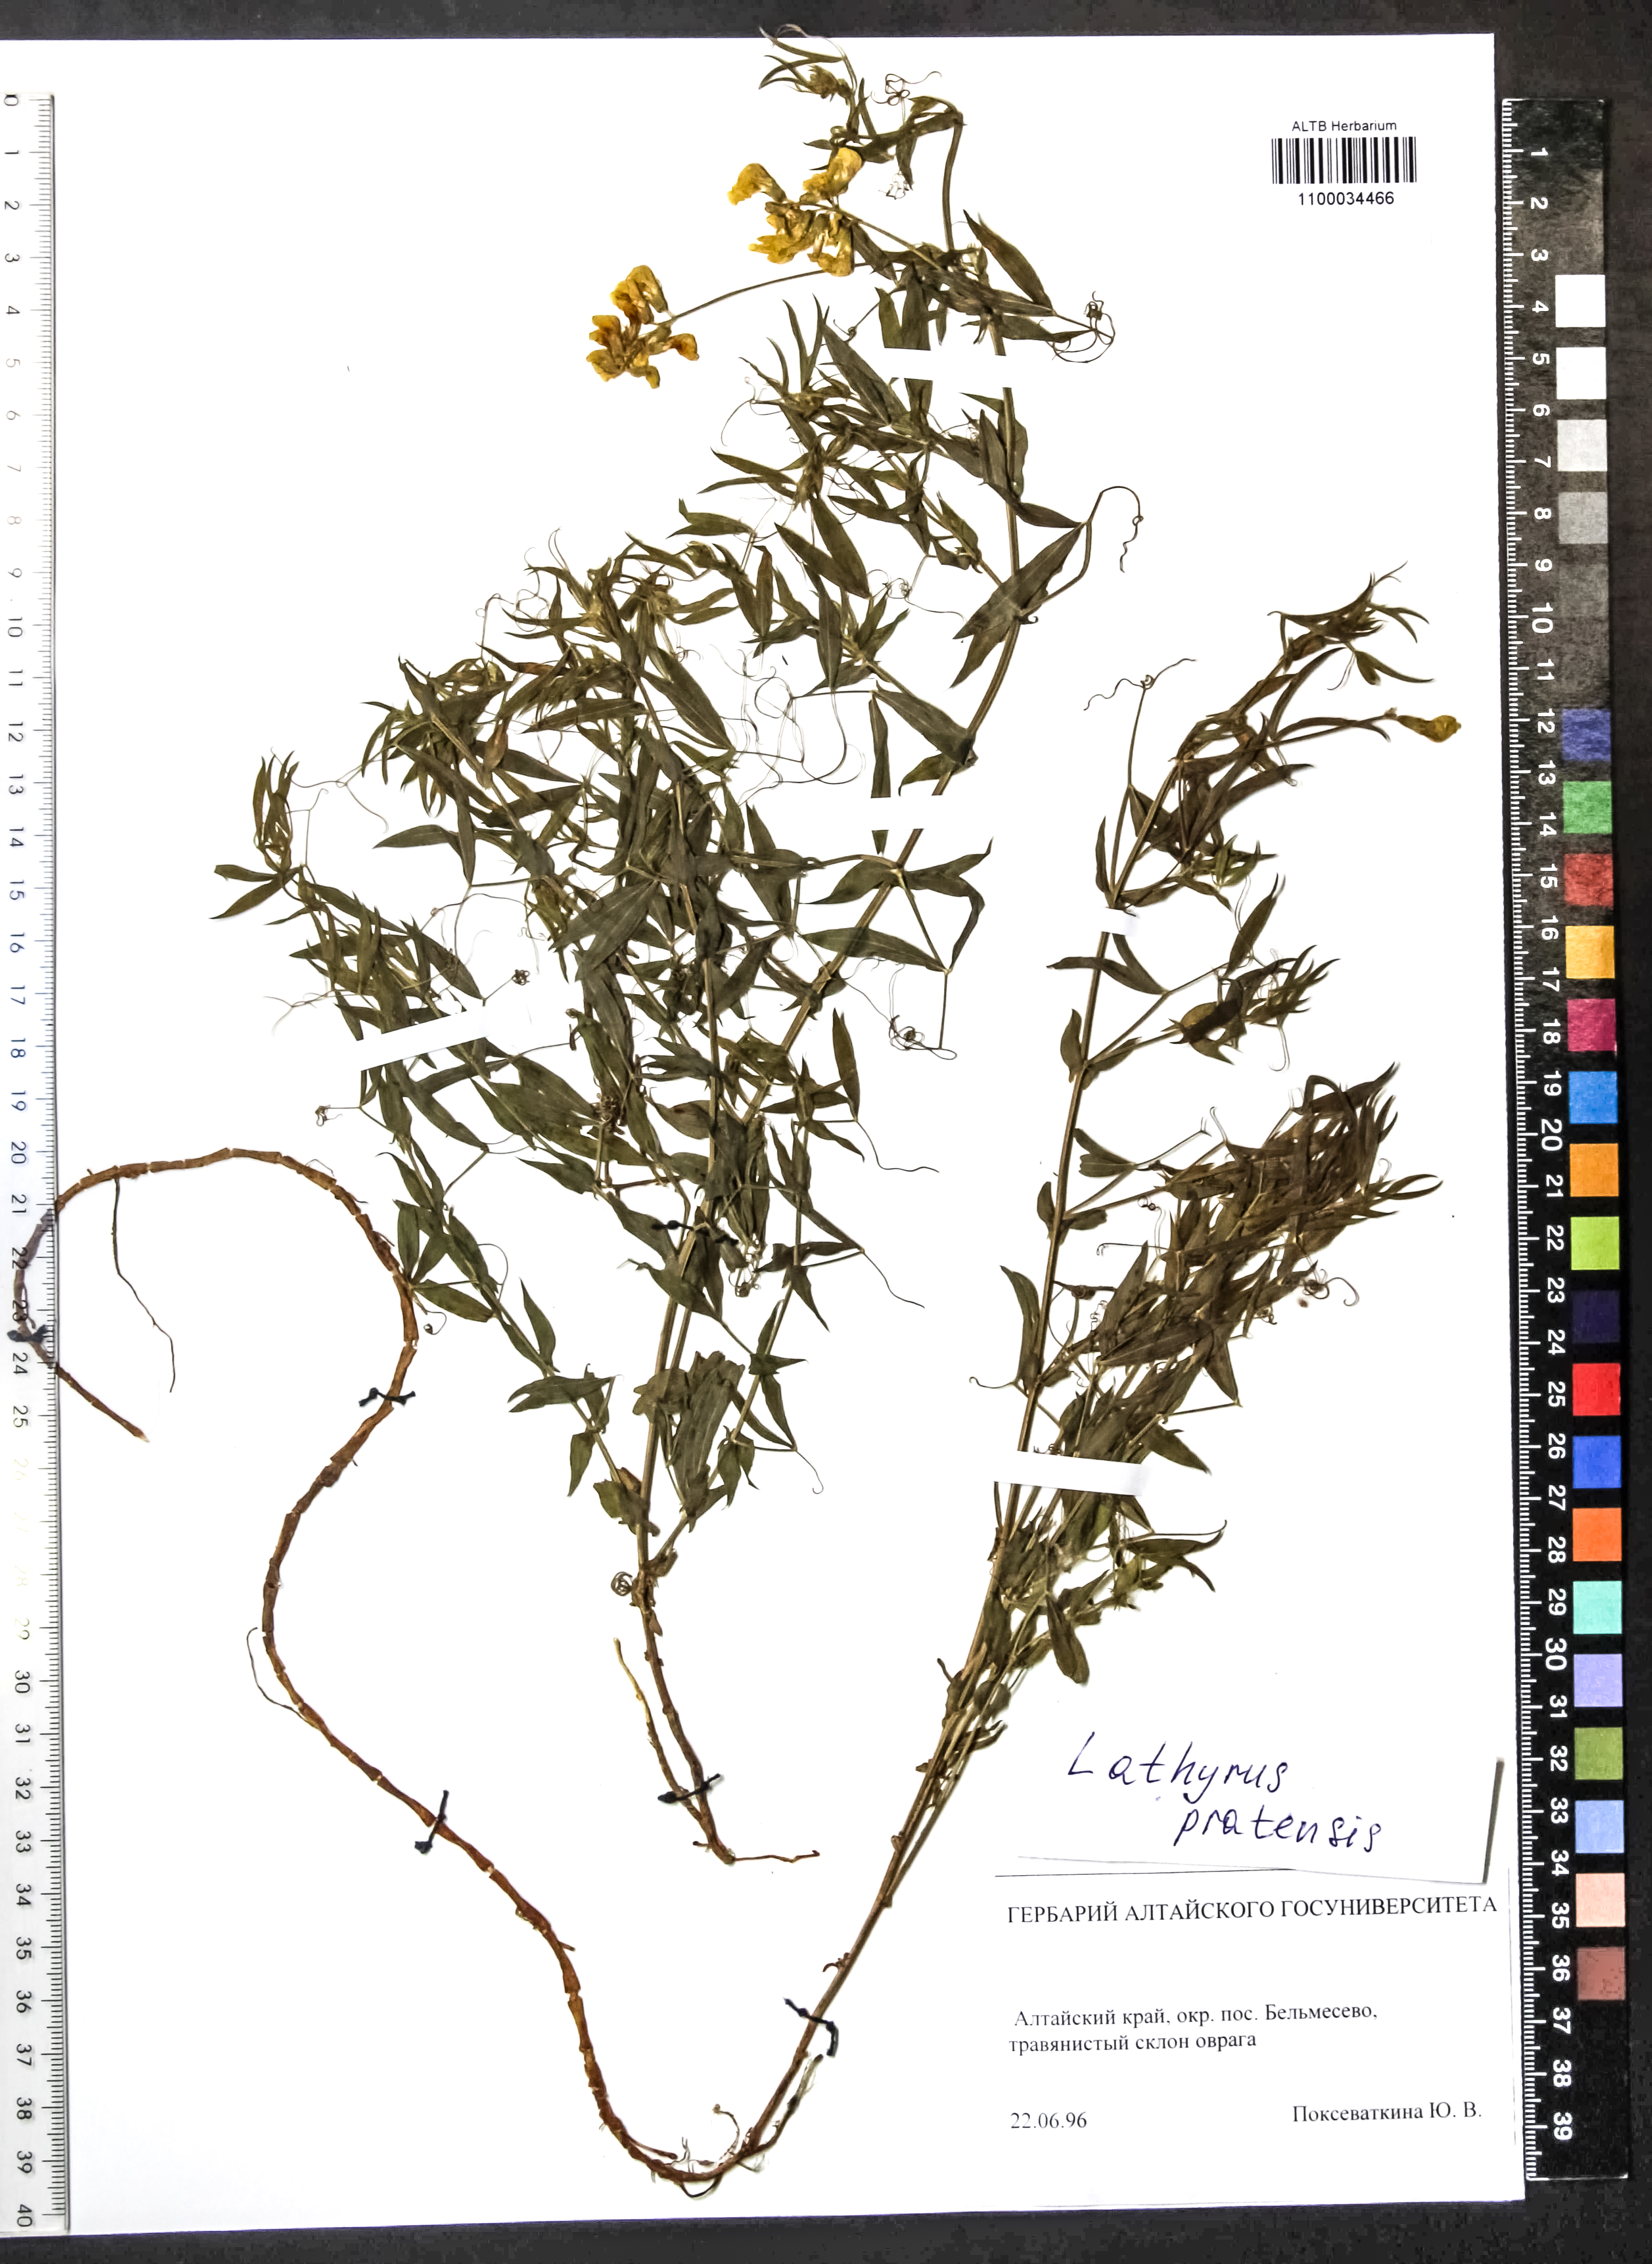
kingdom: Plantae
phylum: Tracheophyta
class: Magnoliopsida
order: Fabales
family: Fabaceae
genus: Lathyrus
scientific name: Lathyrus pratensis
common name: Meadow vetchling
